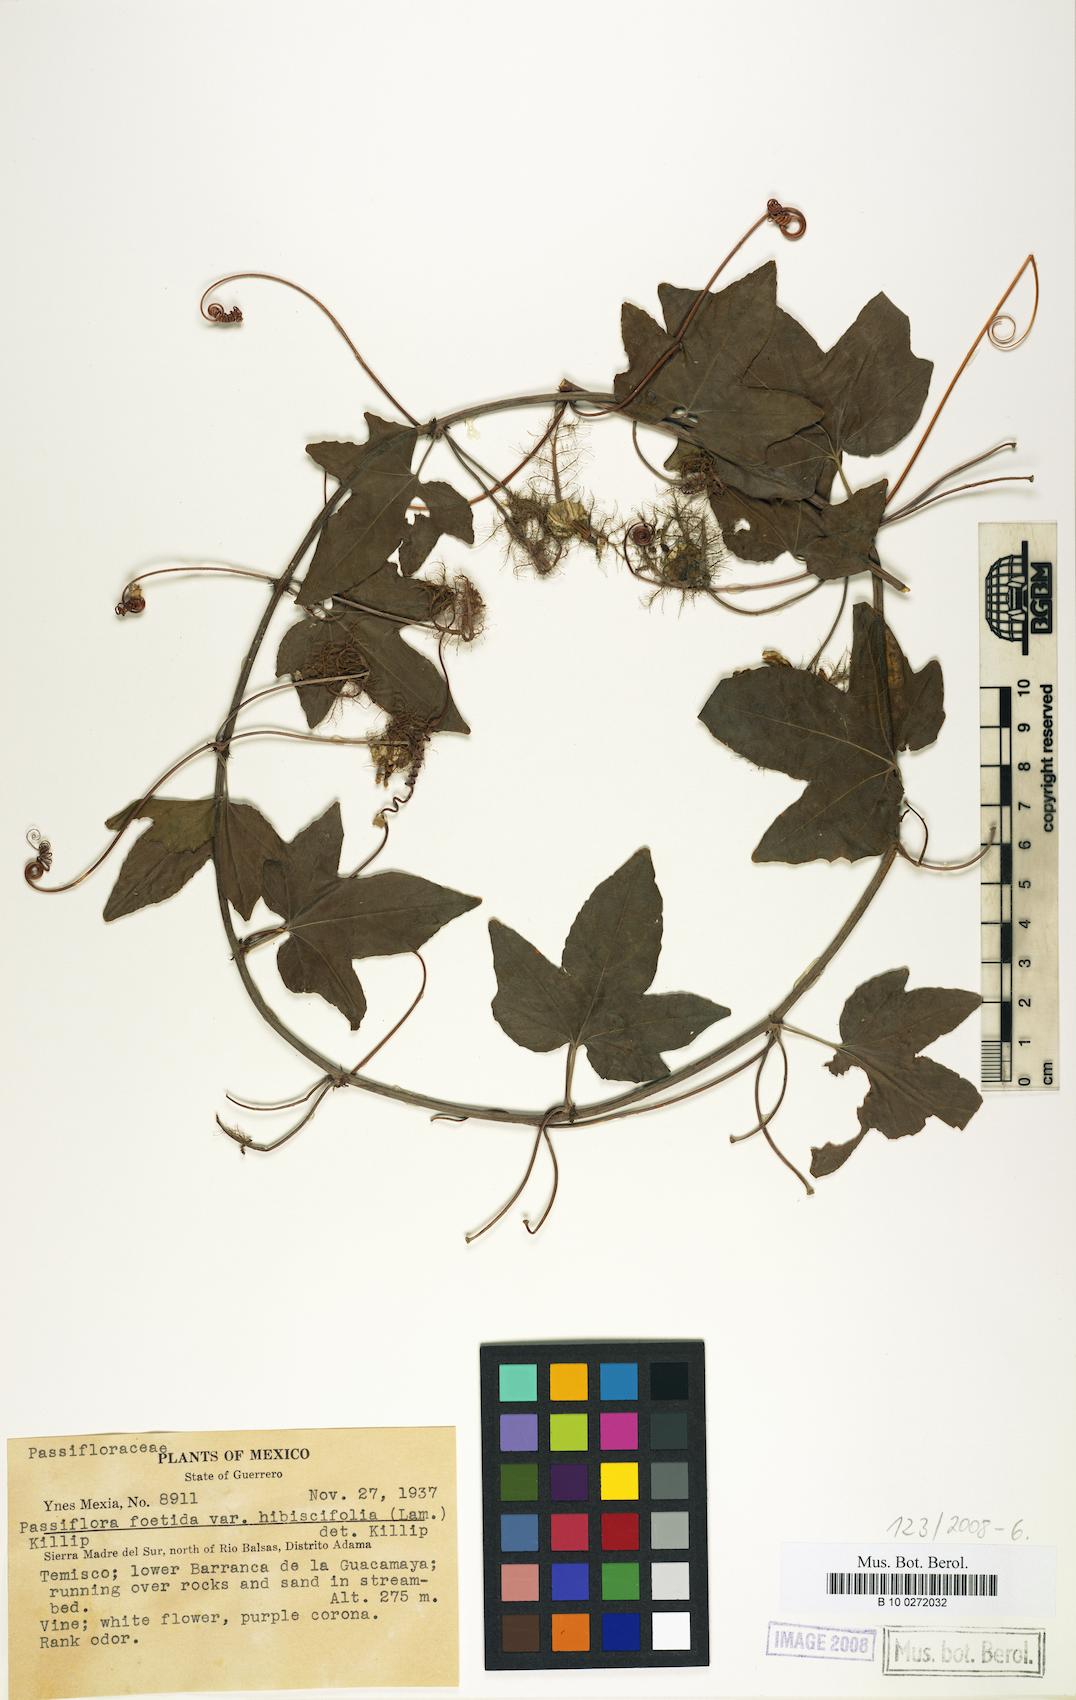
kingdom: Plantae
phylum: Tracheophyta
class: Magnoliopsida
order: Malpighiales
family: Passifloraceae
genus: Passiflora
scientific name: Passiflora ciliata
